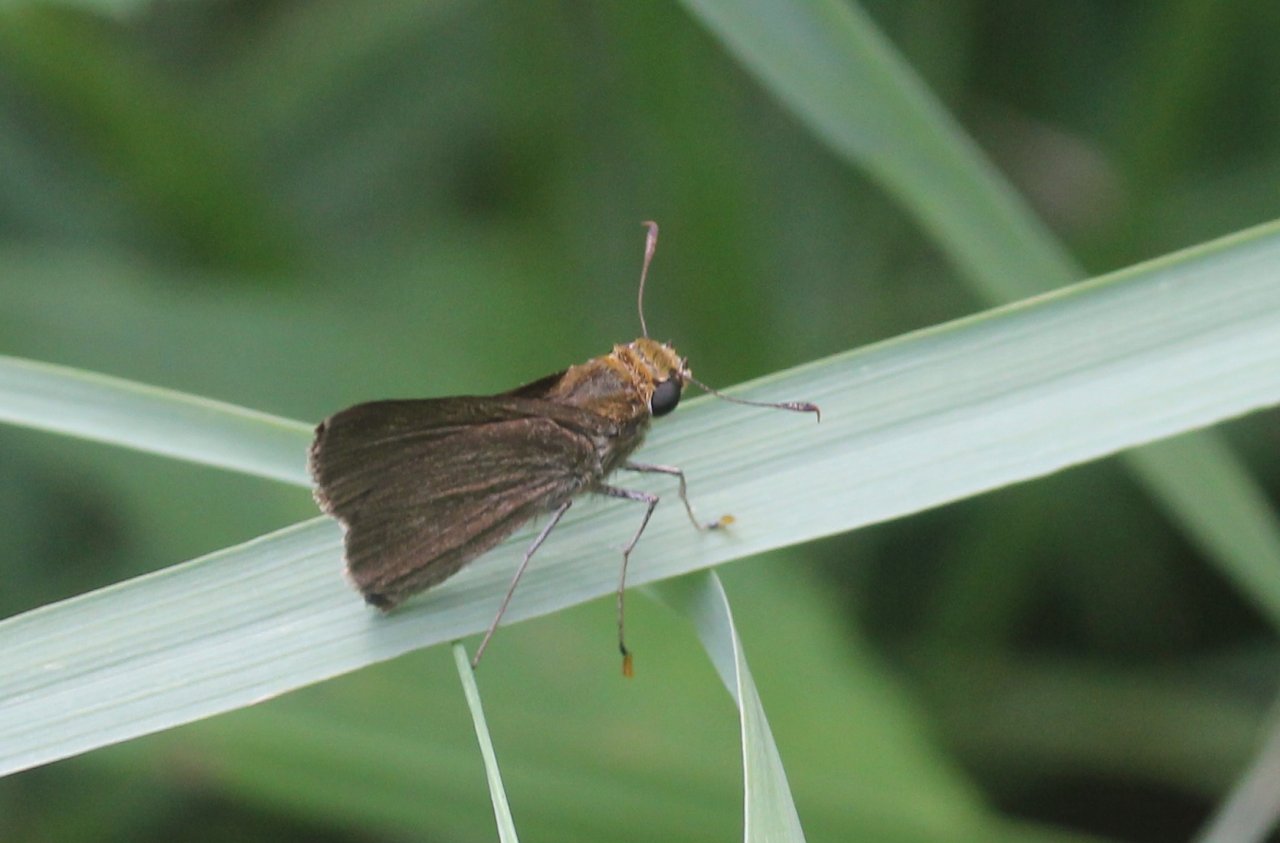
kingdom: Animalia
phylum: Arthropoda
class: Insecta
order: Lepidoptera
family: Hesperiidae
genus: Euphyes
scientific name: Euphyes vestris
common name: Dun Skipper
